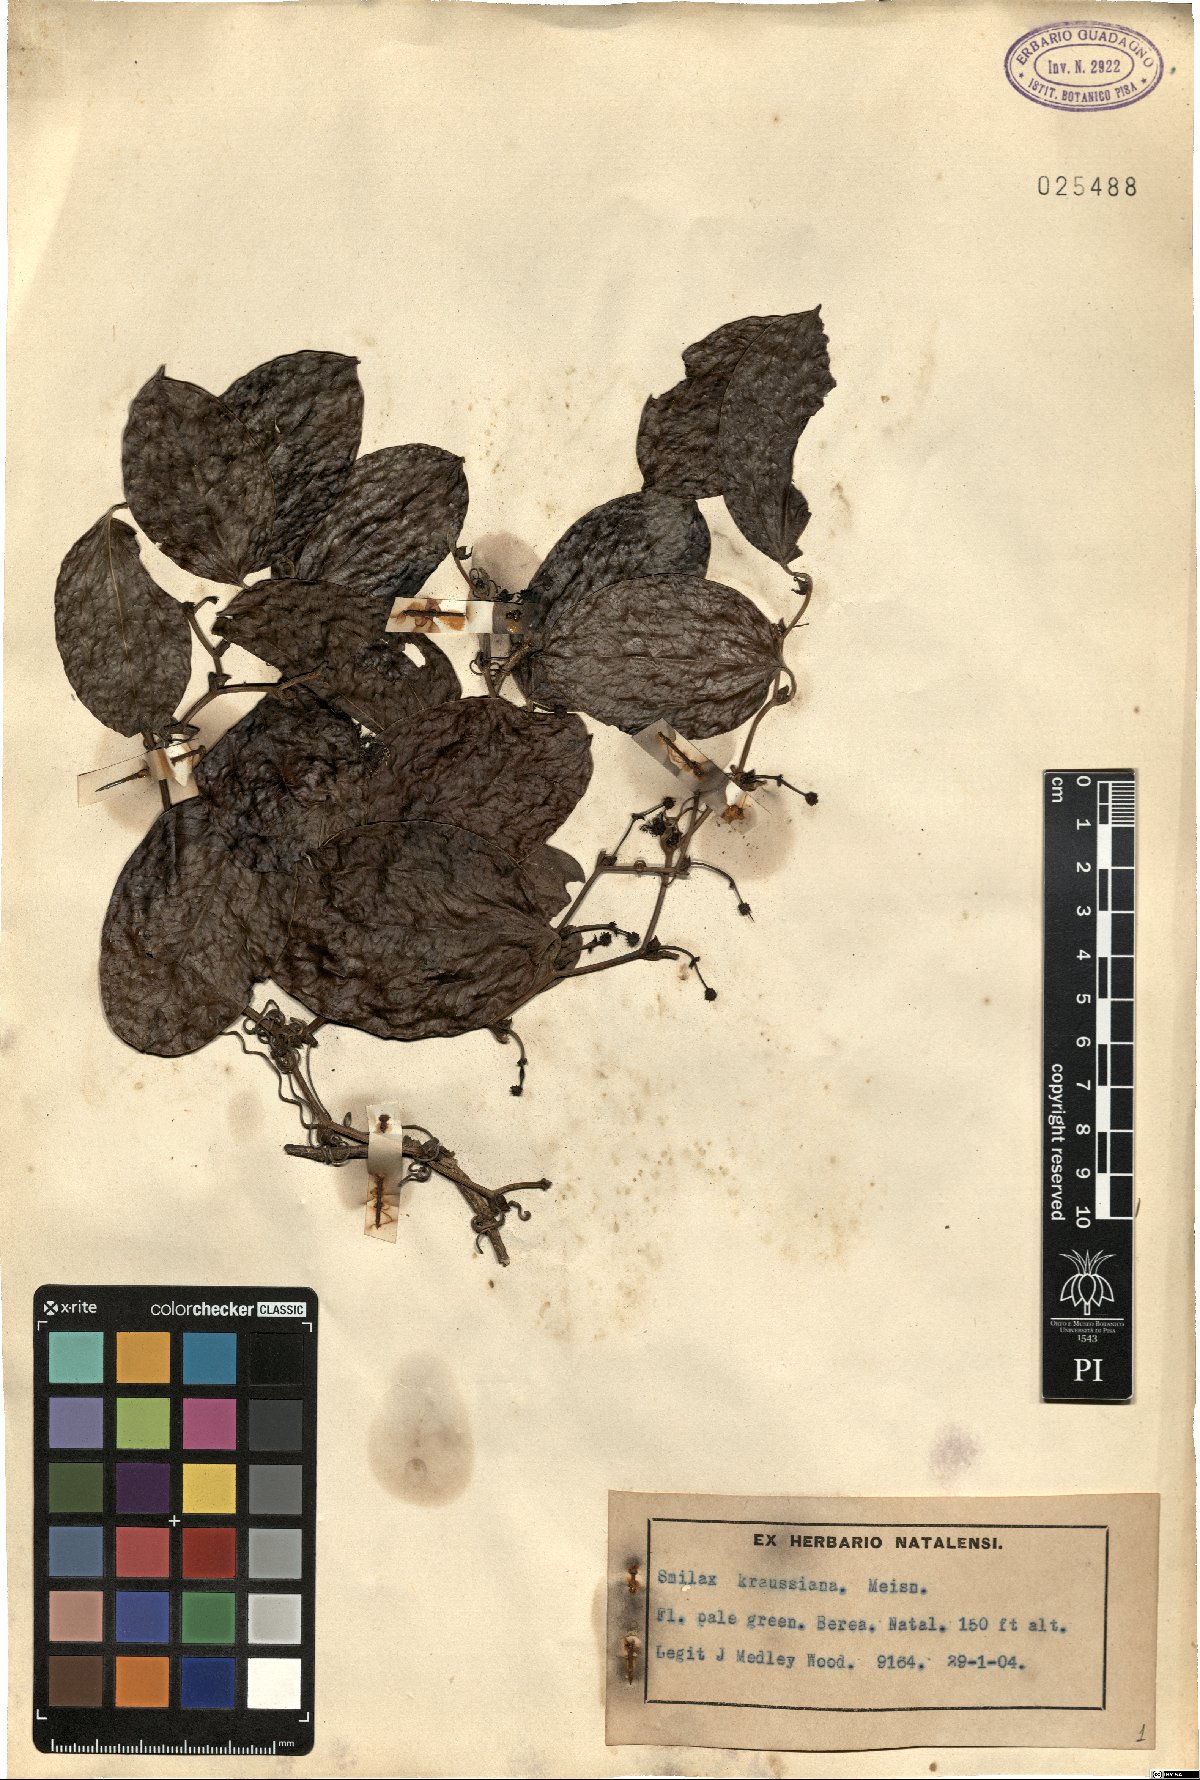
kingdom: Plantae
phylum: Tracheophyta
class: Liliopsida
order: Liliales
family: Smilacaceae
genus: Smilax
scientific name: Smilax anceps
